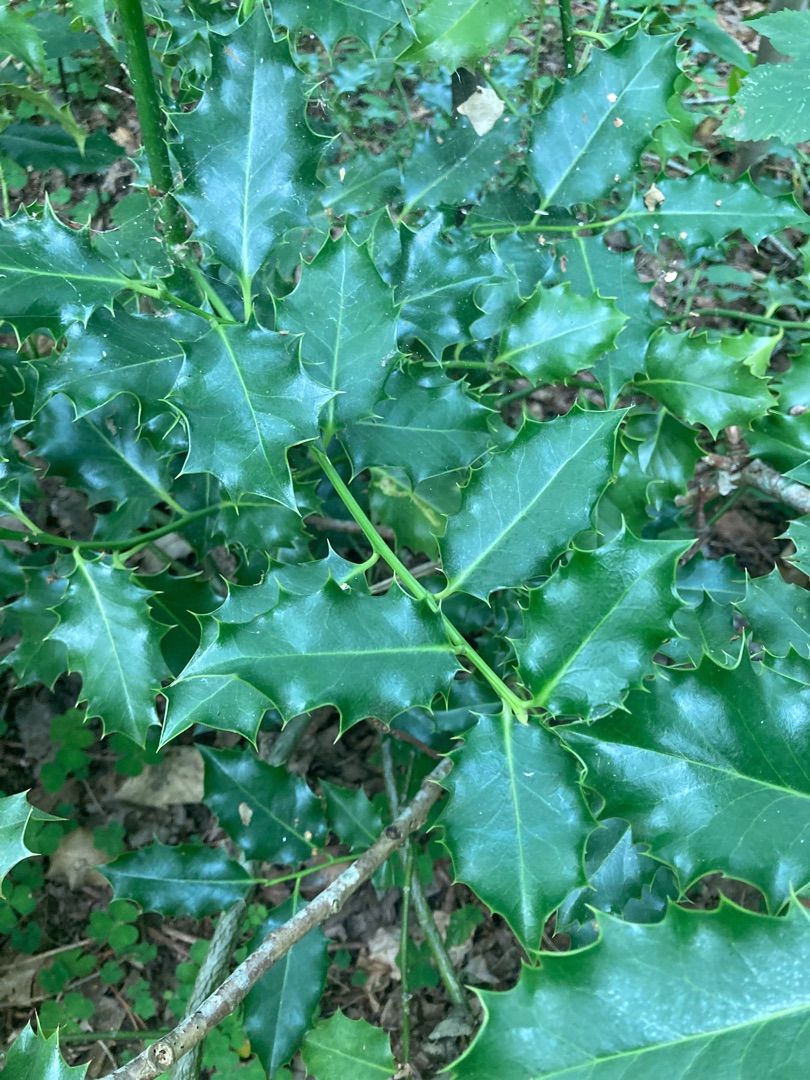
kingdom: Plantae
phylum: Tracheophyta
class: Magnoliopsida
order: Aquifoliales
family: Aquifoliaceae
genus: Ilex
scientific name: Ilex aquifolium
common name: Kristtorn
